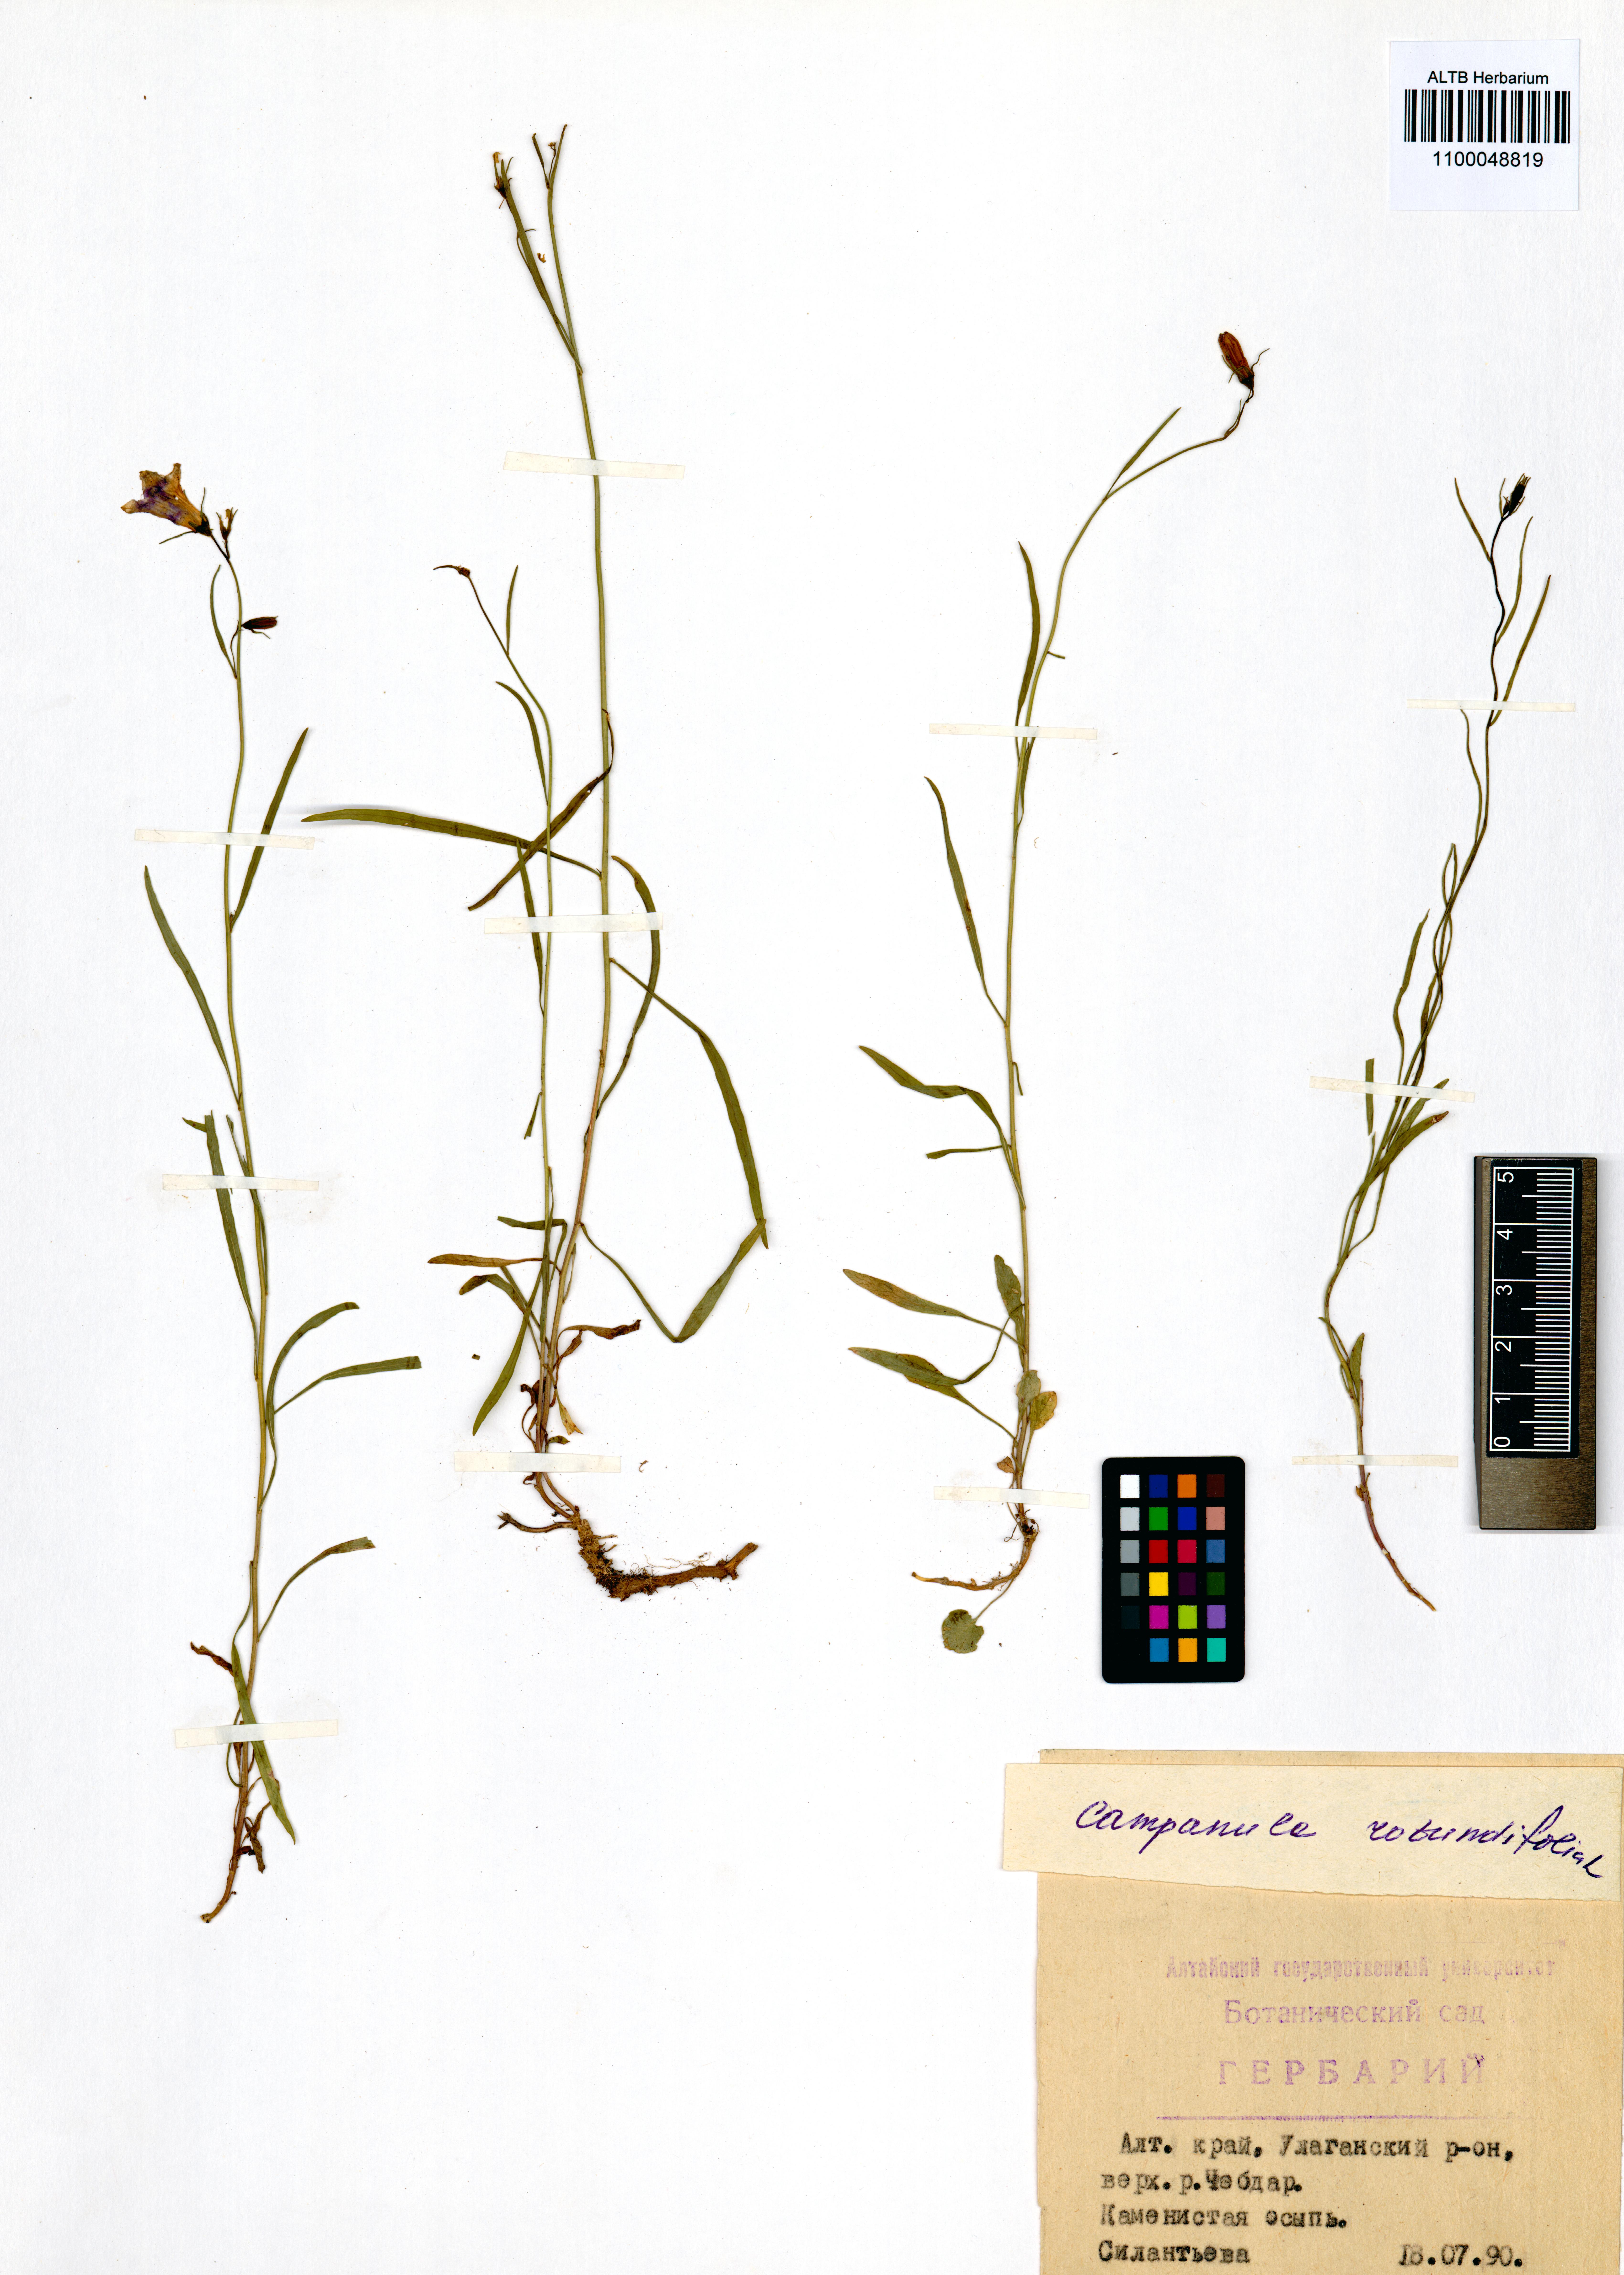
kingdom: Plantae
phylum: Tracheophyta
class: Magnoliopsida
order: Asterales
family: Campanulaceae
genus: Campanula
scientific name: Campanula rotundifolia
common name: Harebell
